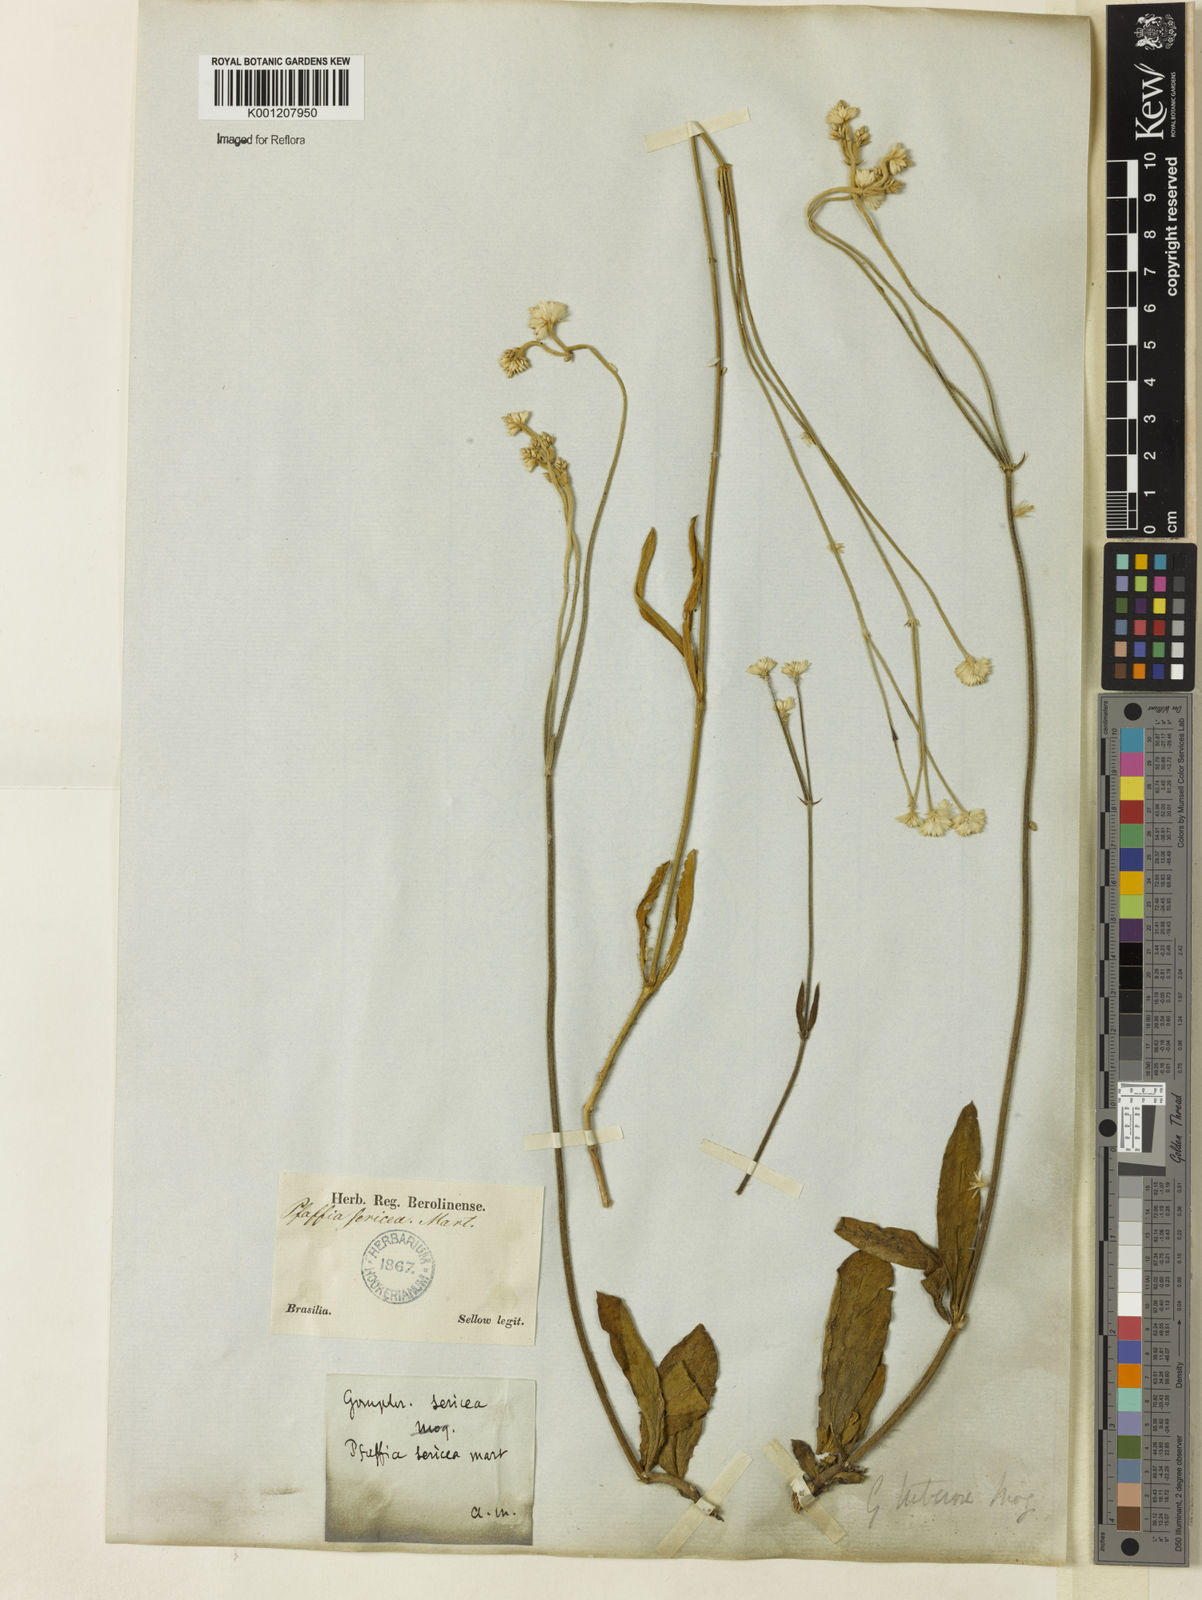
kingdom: Plantae
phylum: Tracheophyta
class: Magnoliopsida
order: Caryophyllales
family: Amaranthaceae
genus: Pfaffia
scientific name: Pfaffia tuberosa
